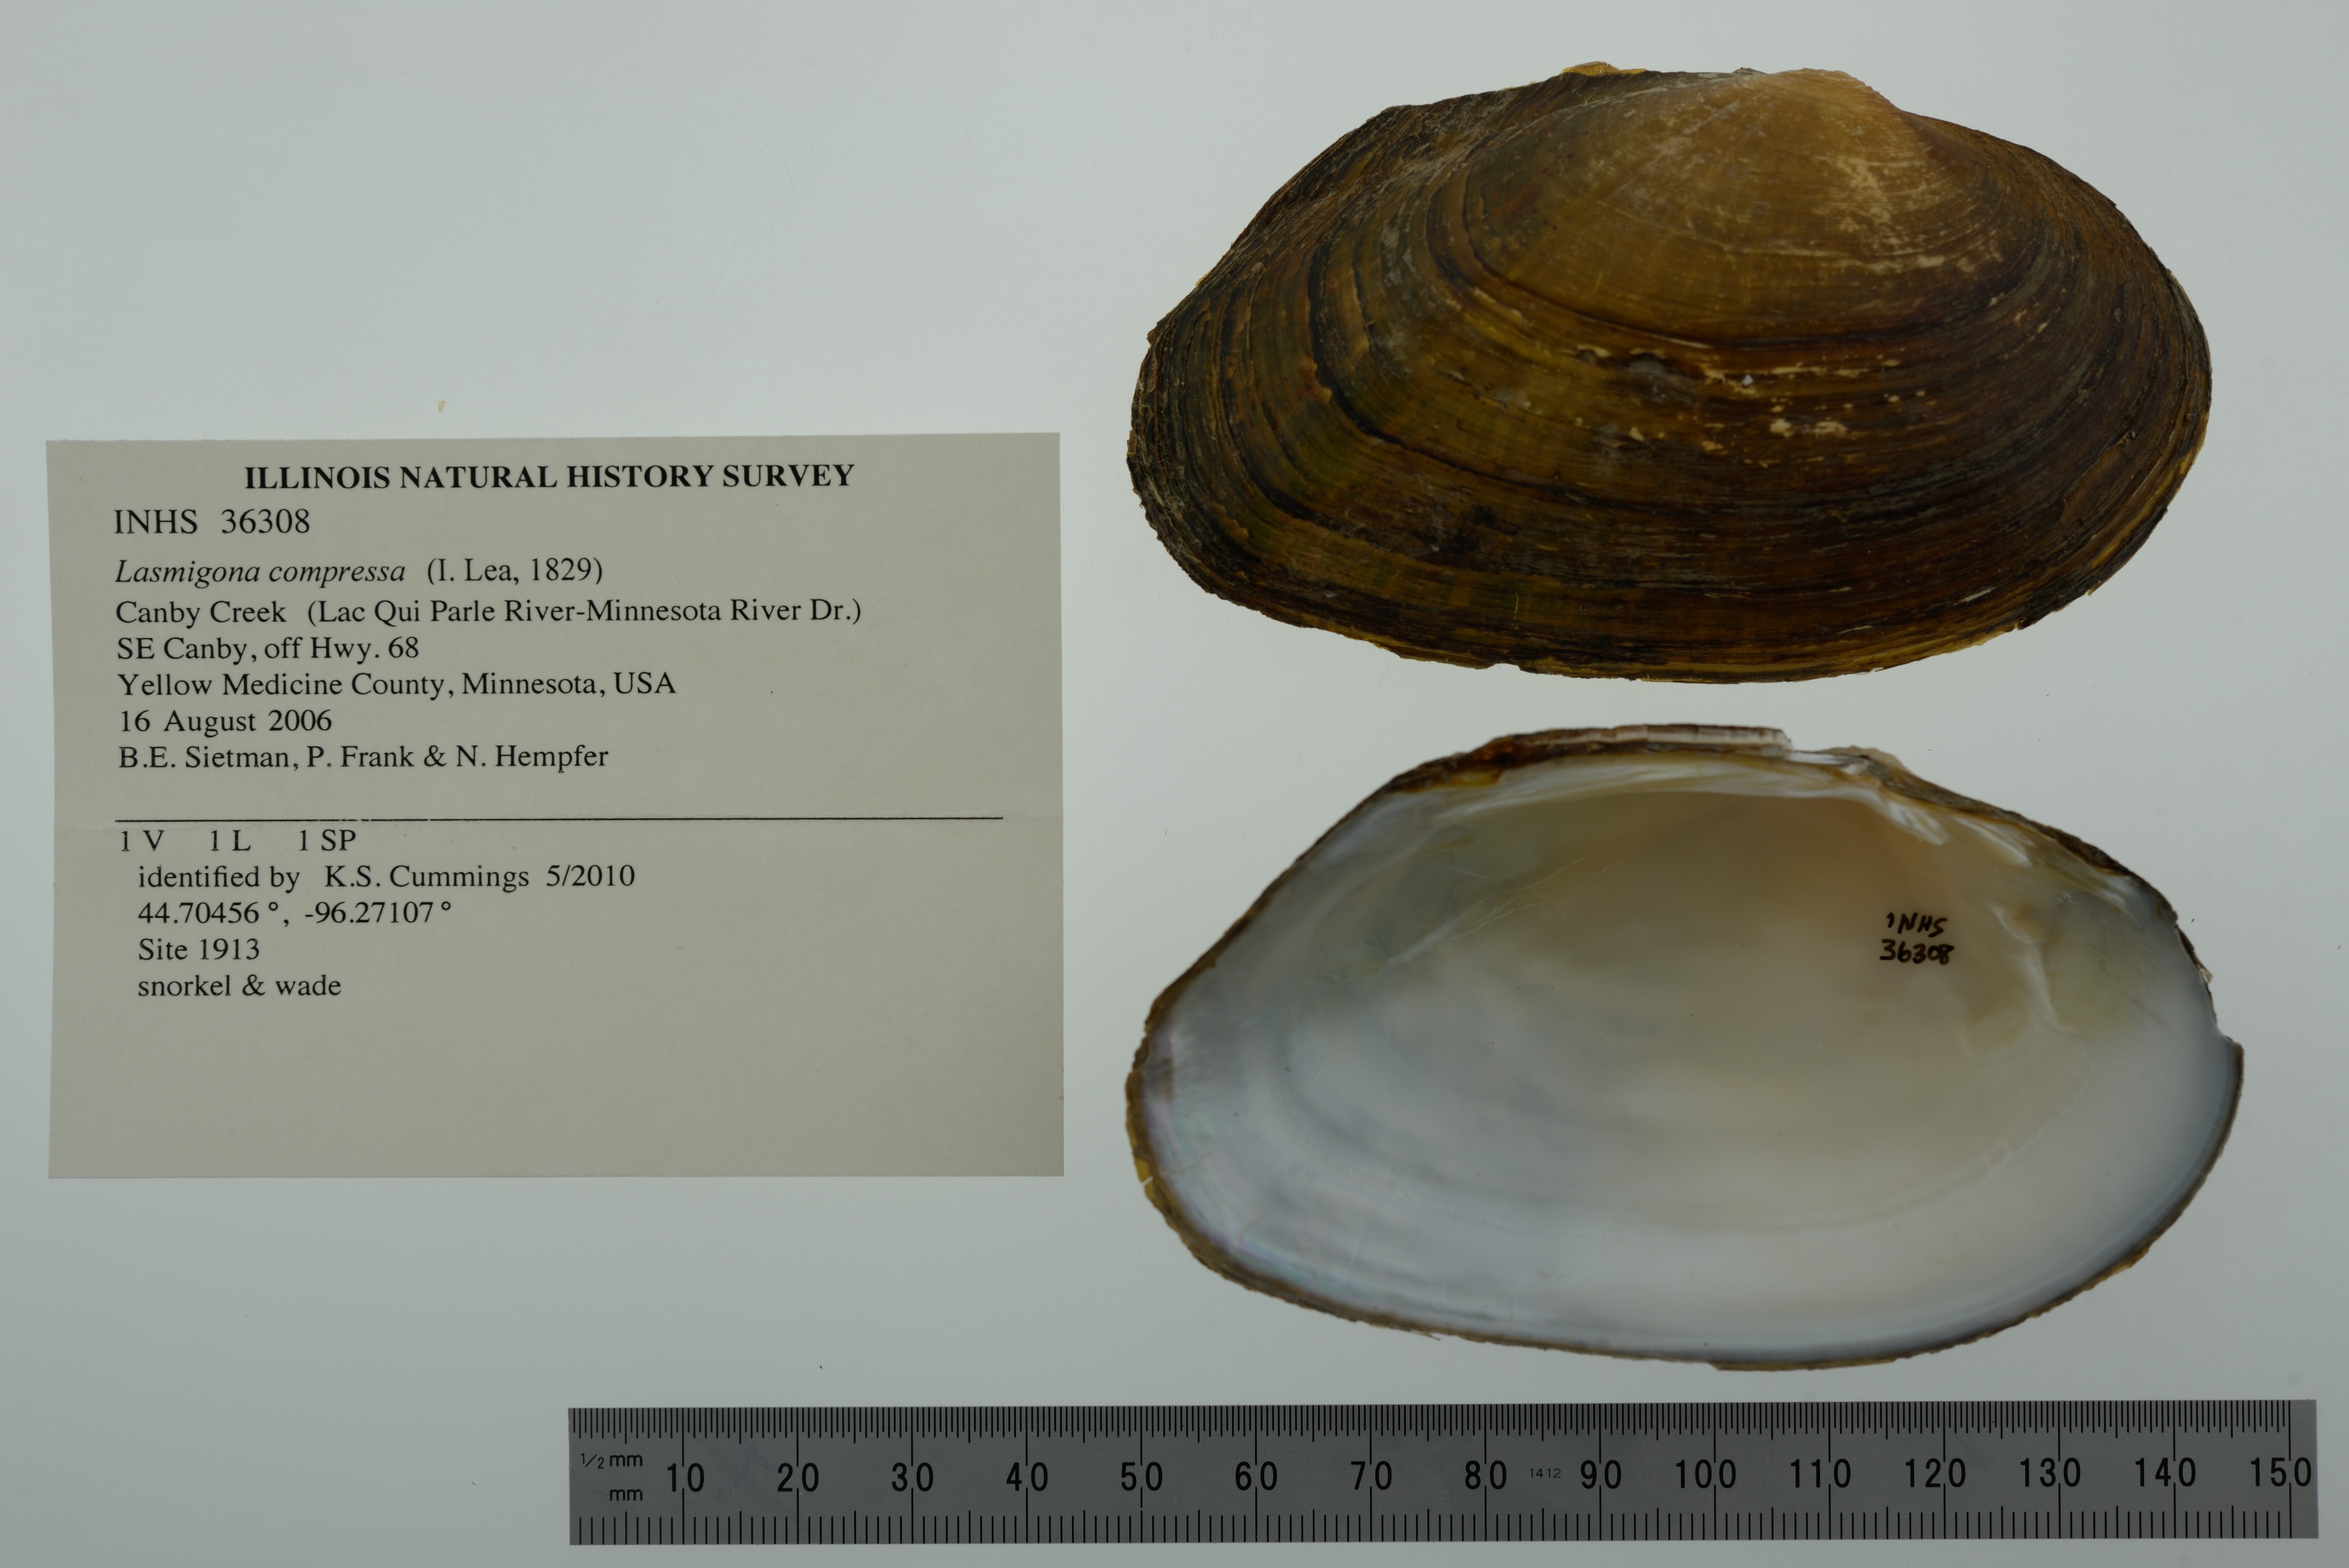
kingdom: Animalia
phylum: Mollusca
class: Bivalvia
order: Unionida
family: Unionidae
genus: Lasmigona
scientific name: Lasmigona compressa
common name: Creek heelsplitter
